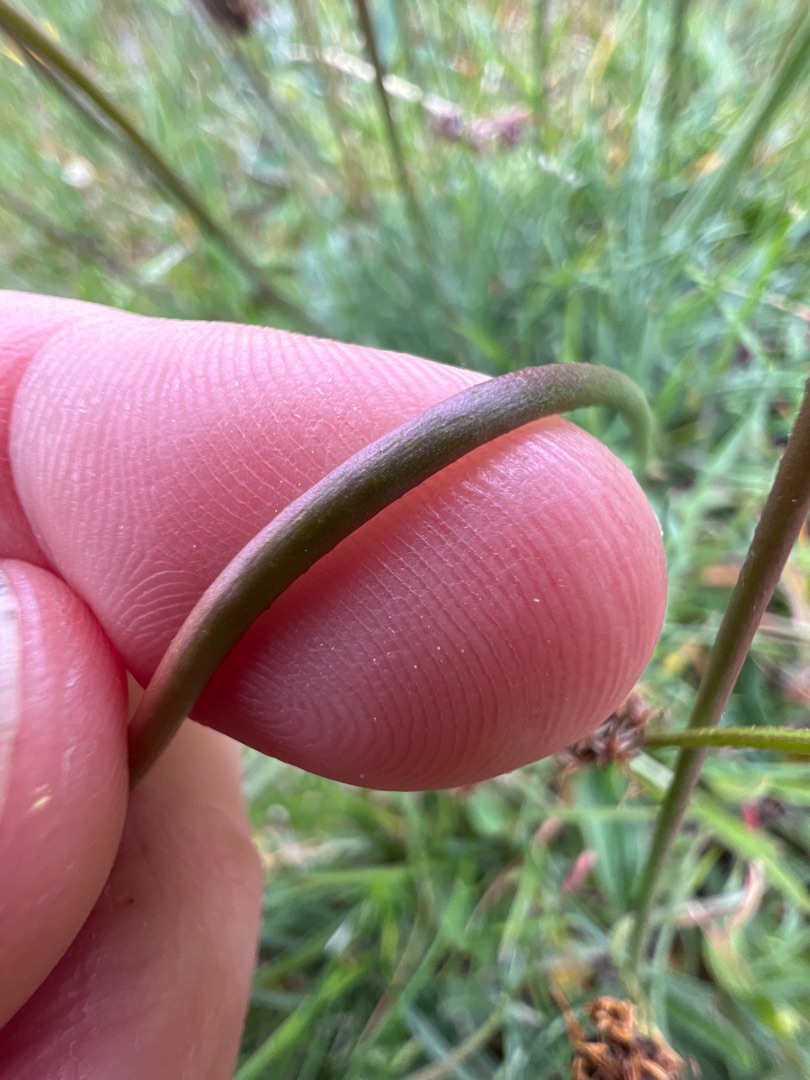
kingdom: Plantae
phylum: Tracheophyta
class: Magnoliopsida
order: Caryophyllales
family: Plumbaginaceae
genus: Armeria
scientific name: Armeria maritima
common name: Vej-engelskgræs
